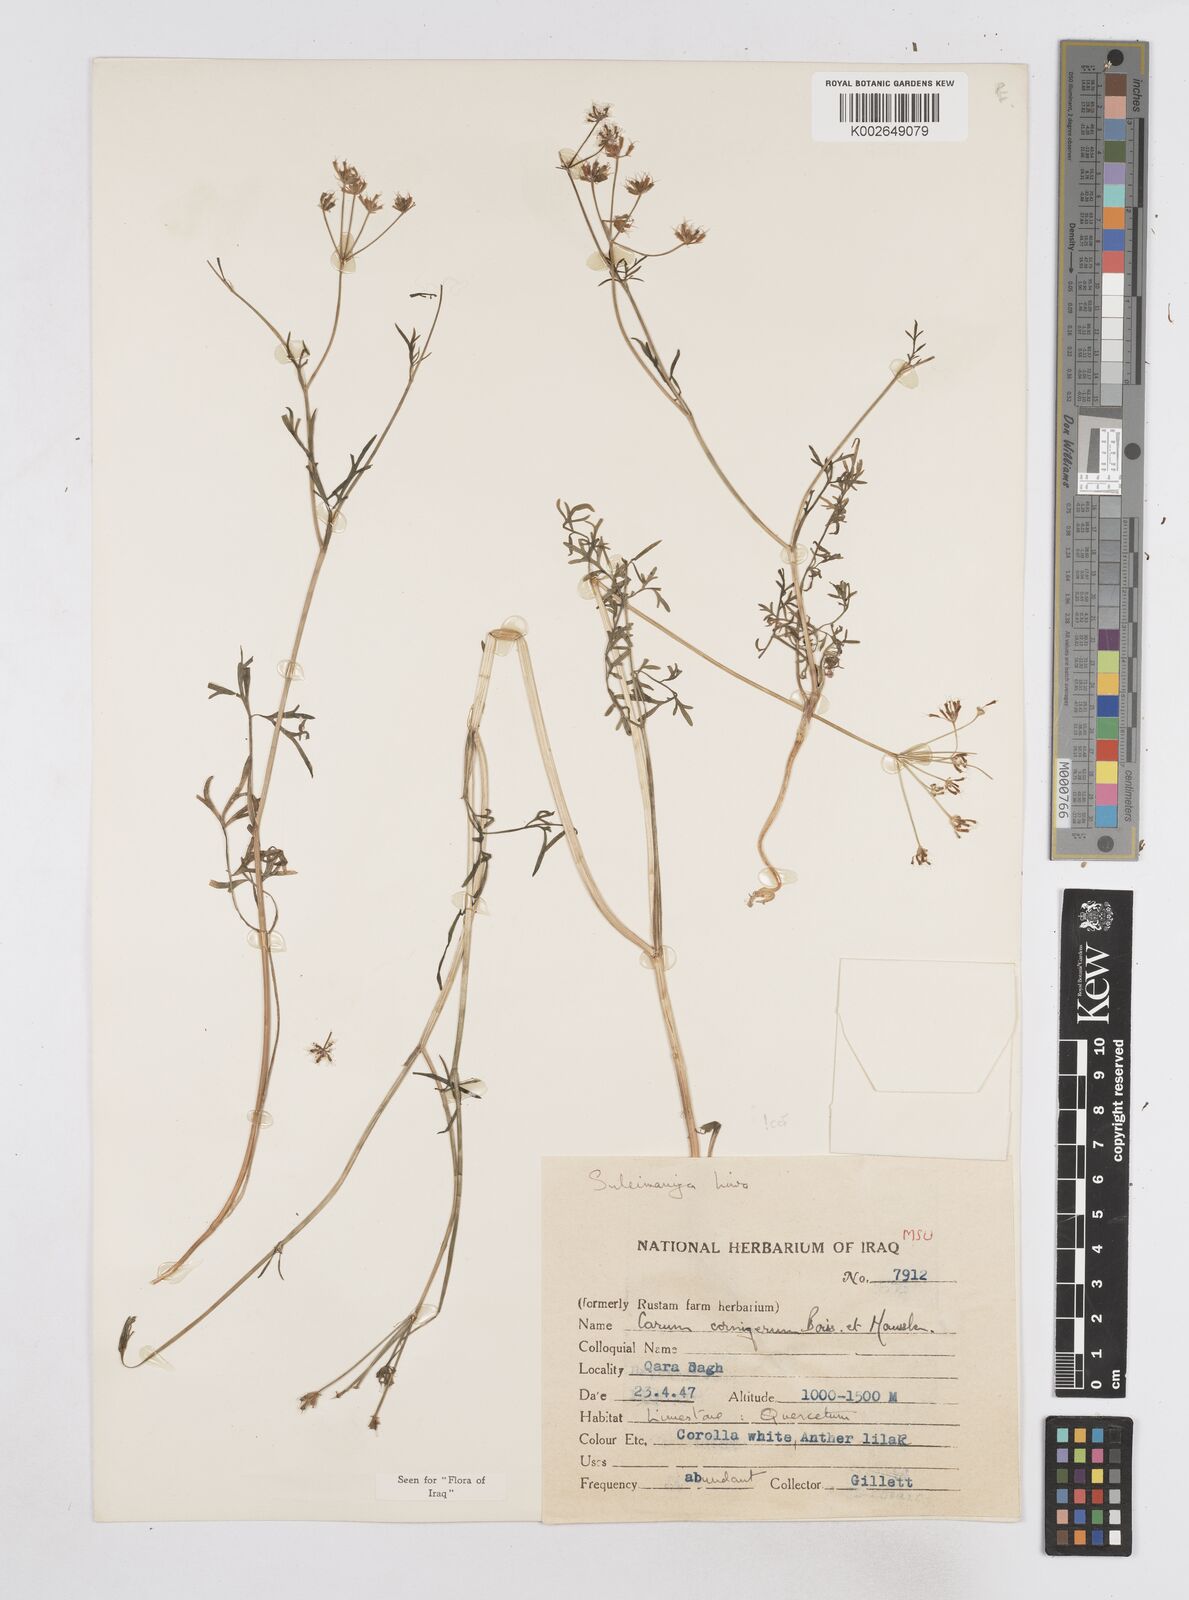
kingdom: Plantae
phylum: Tracheophyta
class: Magnoliopsida
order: Apiales
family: Apiaceae
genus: Bunium
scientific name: Bunium cornigerum
